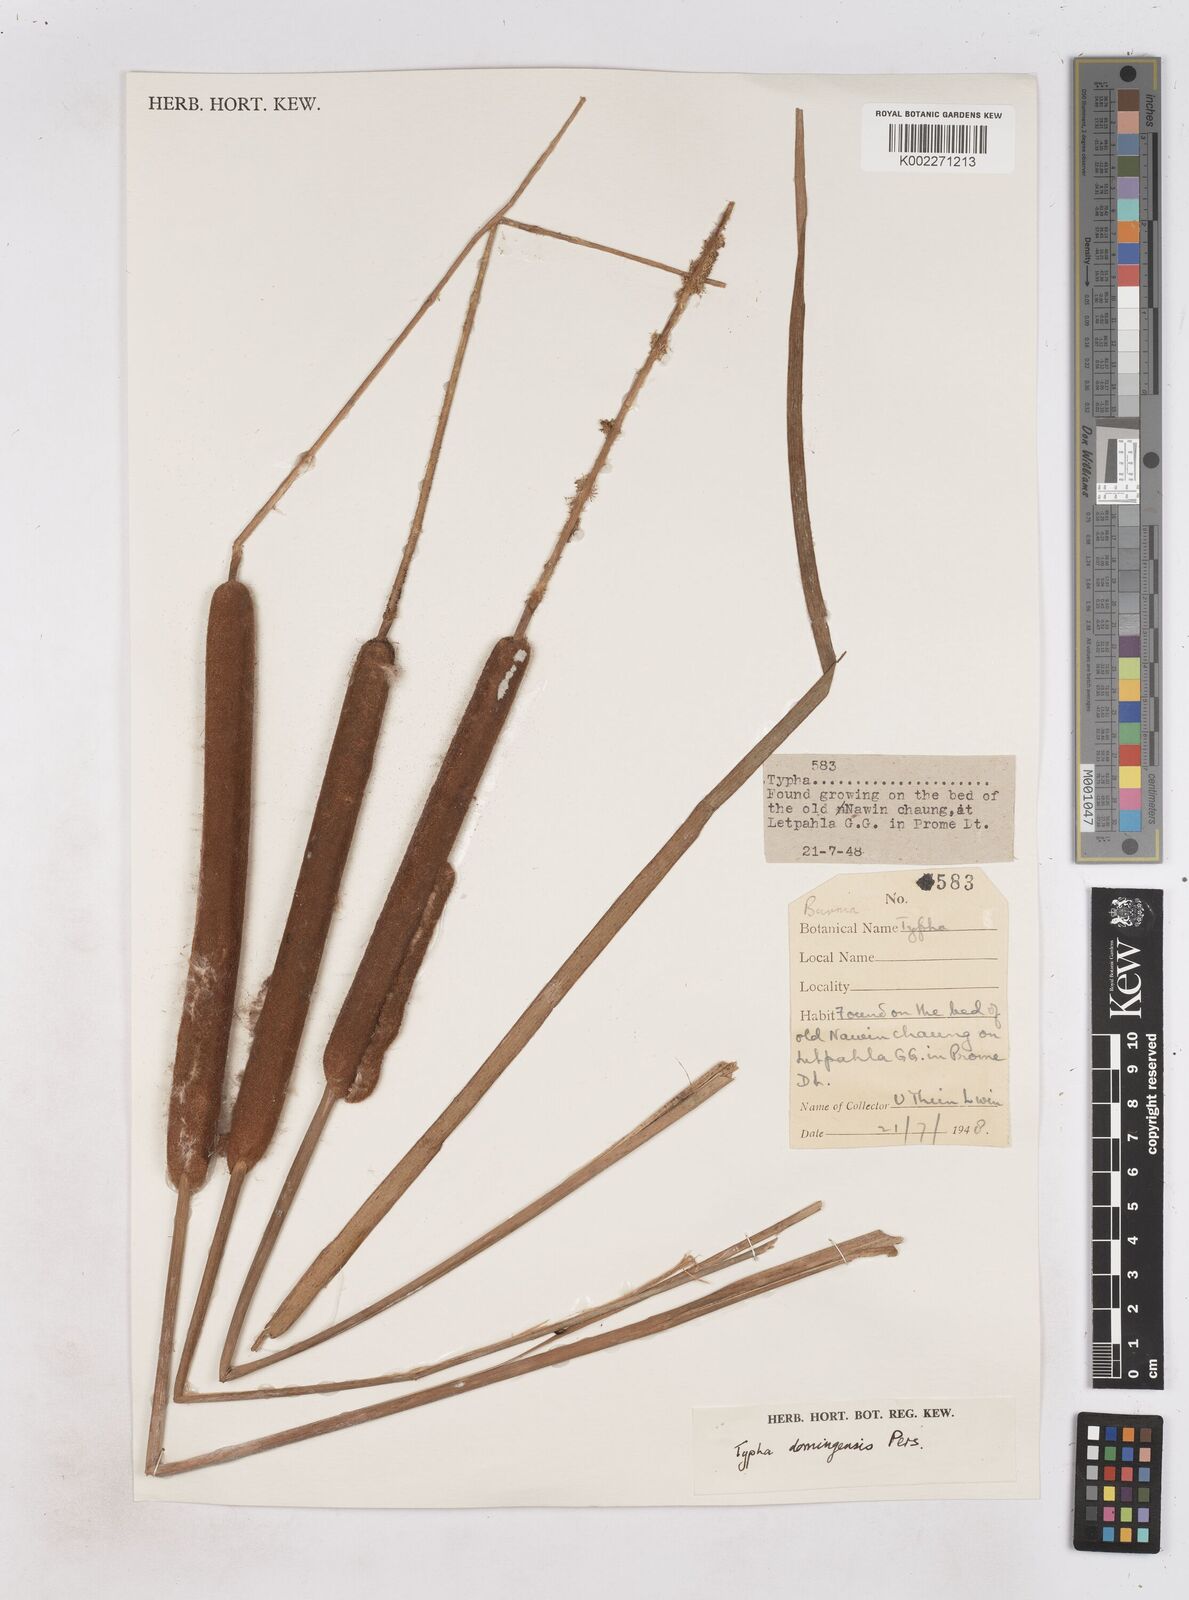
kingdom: Plantae
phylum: Tracheophyta
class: Liliopsida
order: Poales
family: Typhaceae
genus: Typha
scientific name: Typha domingensis
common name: Southern cattail
